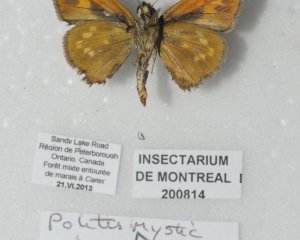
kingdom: Animalia
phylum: Arthropoda
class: Insecta
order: Lepidoptera
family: Hesperiidae
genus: Hesperia
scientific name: Hesperia sassacus
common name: Sassacus Skipper
